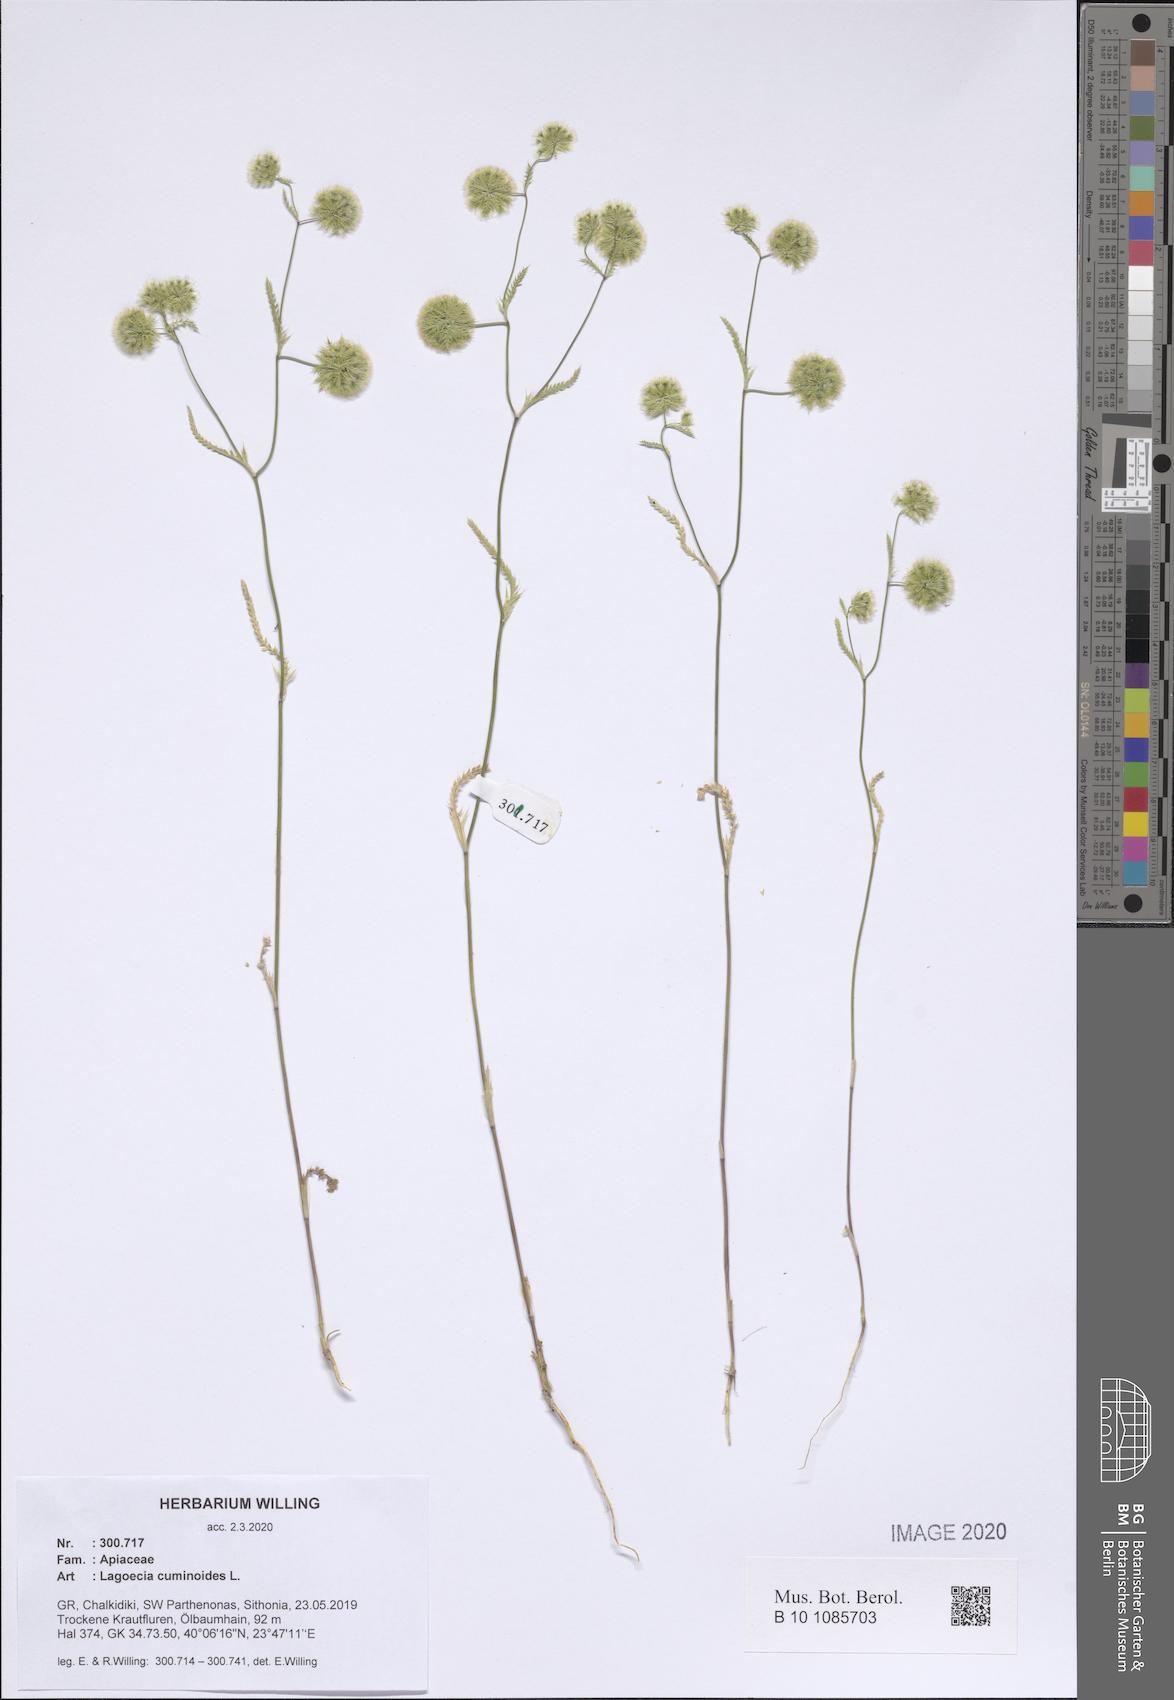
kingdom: Plantae
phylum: Tracheophyta
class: Magnoliopsida
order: Apiales
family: Apiaceae
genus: Lagoecia
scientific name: Lagoecia cuminoides
